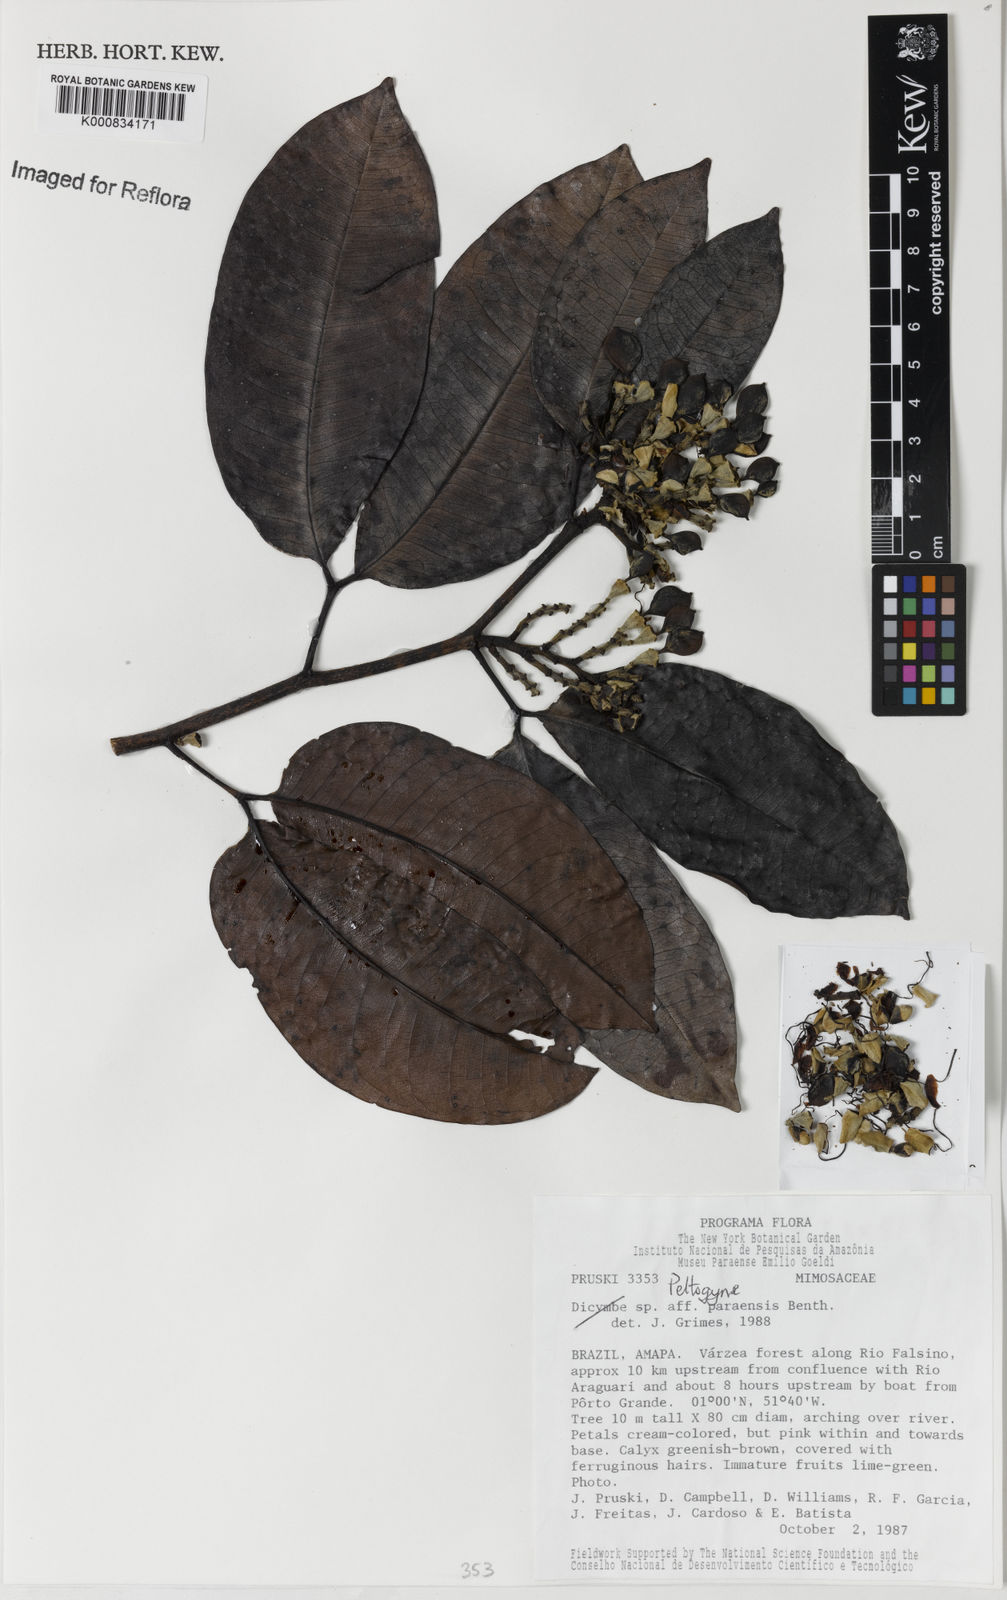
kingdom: Plantae
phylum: Tracheophyta
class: Magnoliopsida
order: Fabales
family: Fabaceae
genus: Peltogyne
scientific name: Peltogyne
